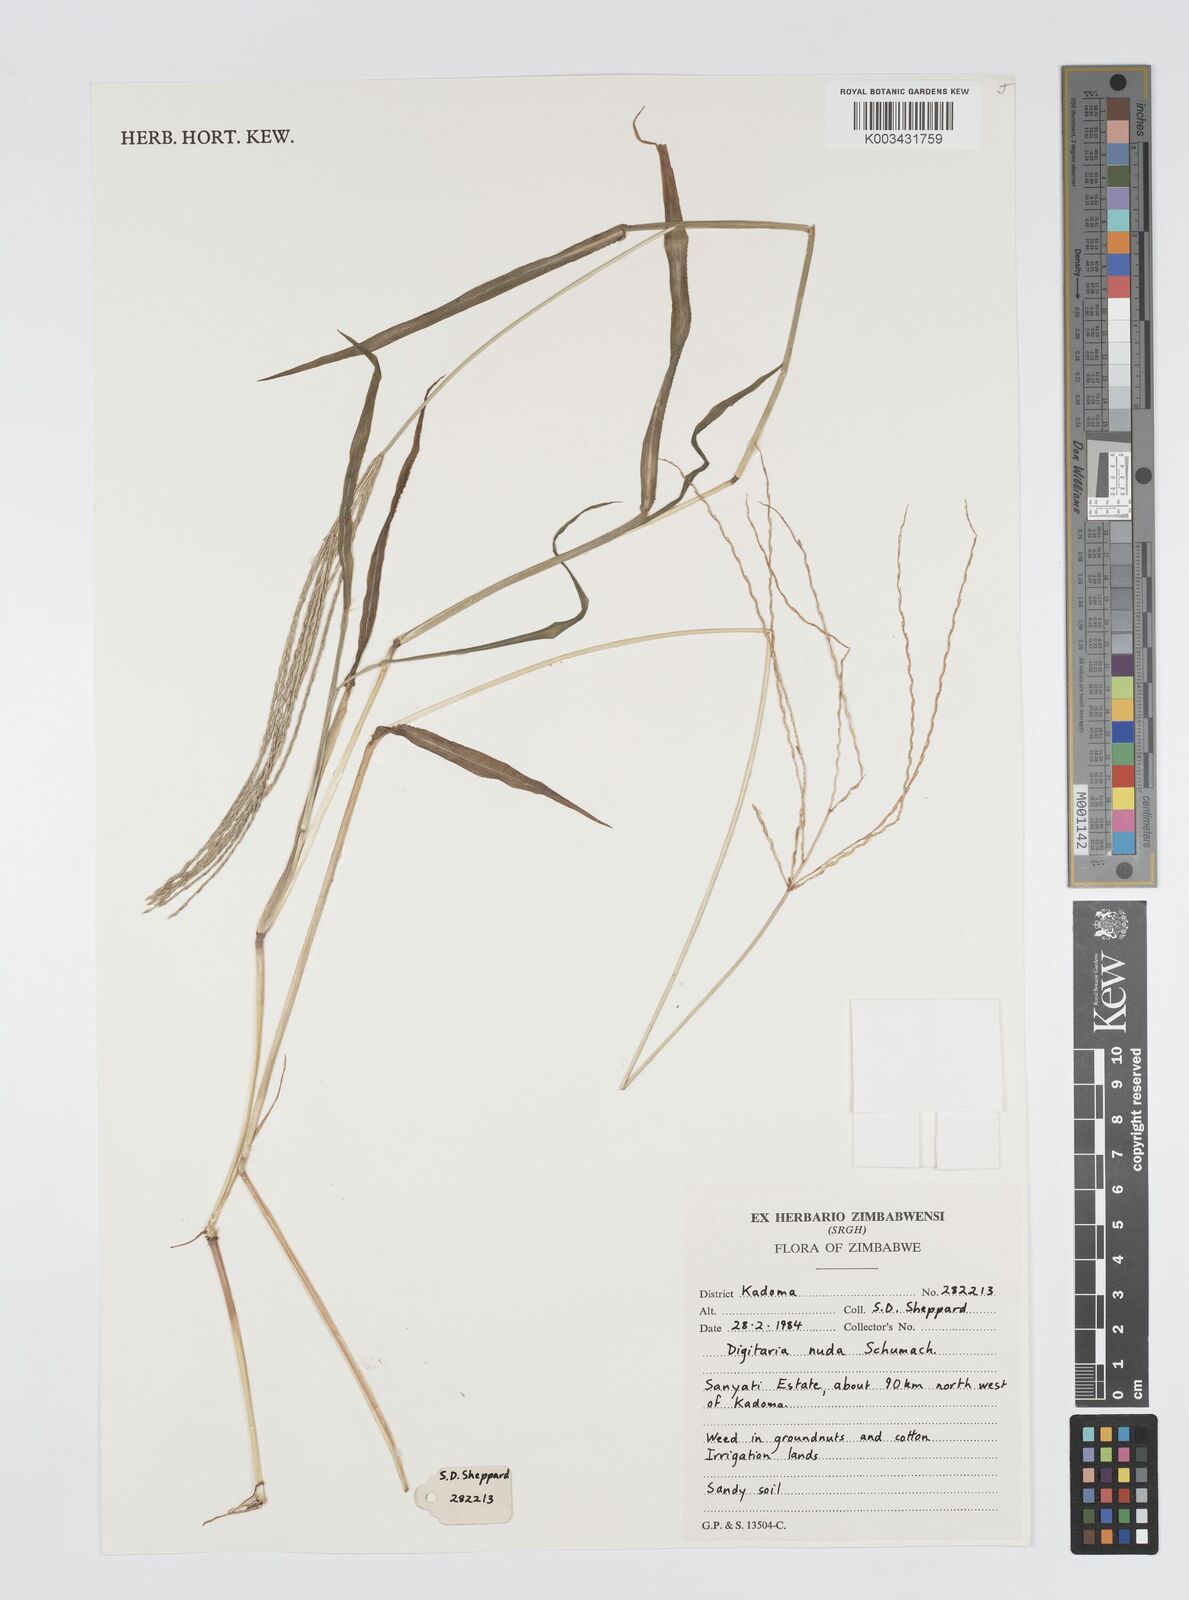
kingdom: Plantae
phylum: Tracheophyta
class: Liliopsida
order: Poales
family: Poaceae
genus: Digitaria
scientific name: Digitaria nuda
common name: Naked crabgrass
